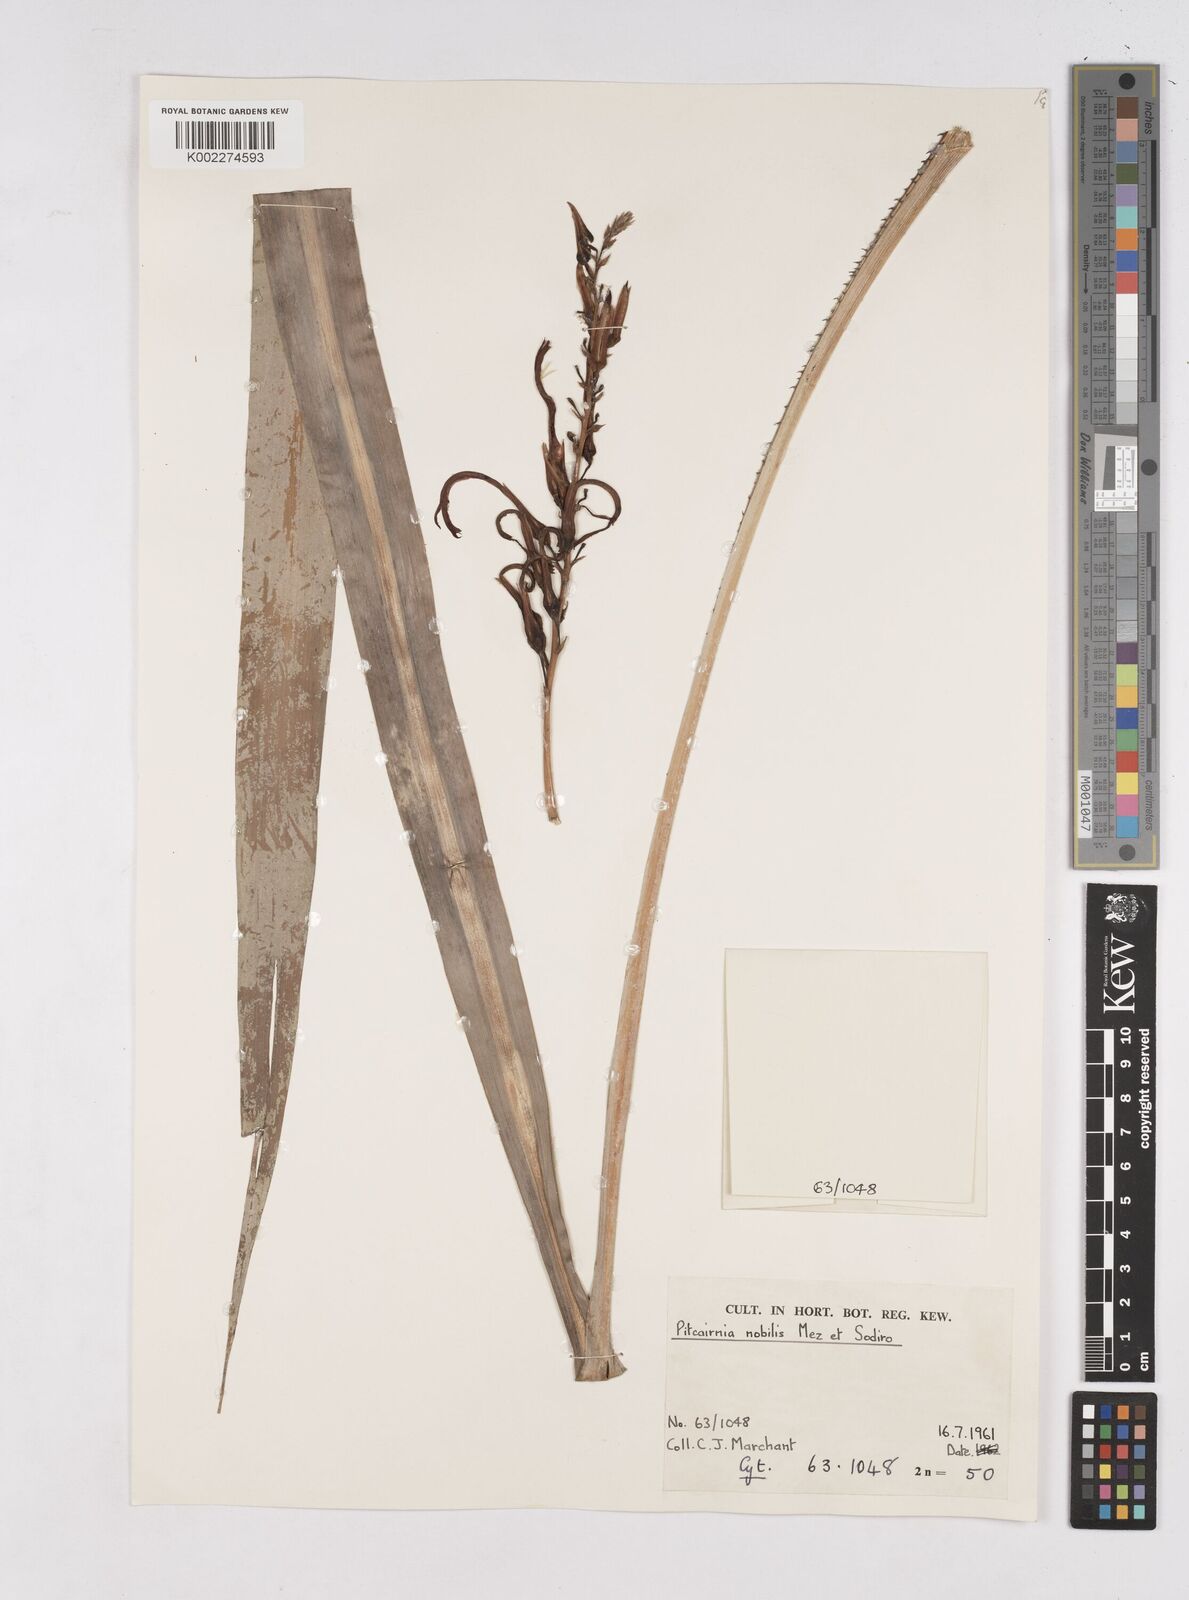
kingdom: Plantae
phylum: Tracheophyta
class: Liliopsida
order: Poales
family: Bromeliaceae
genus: Pitcairnia
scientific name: Pitcairnia nobilis
